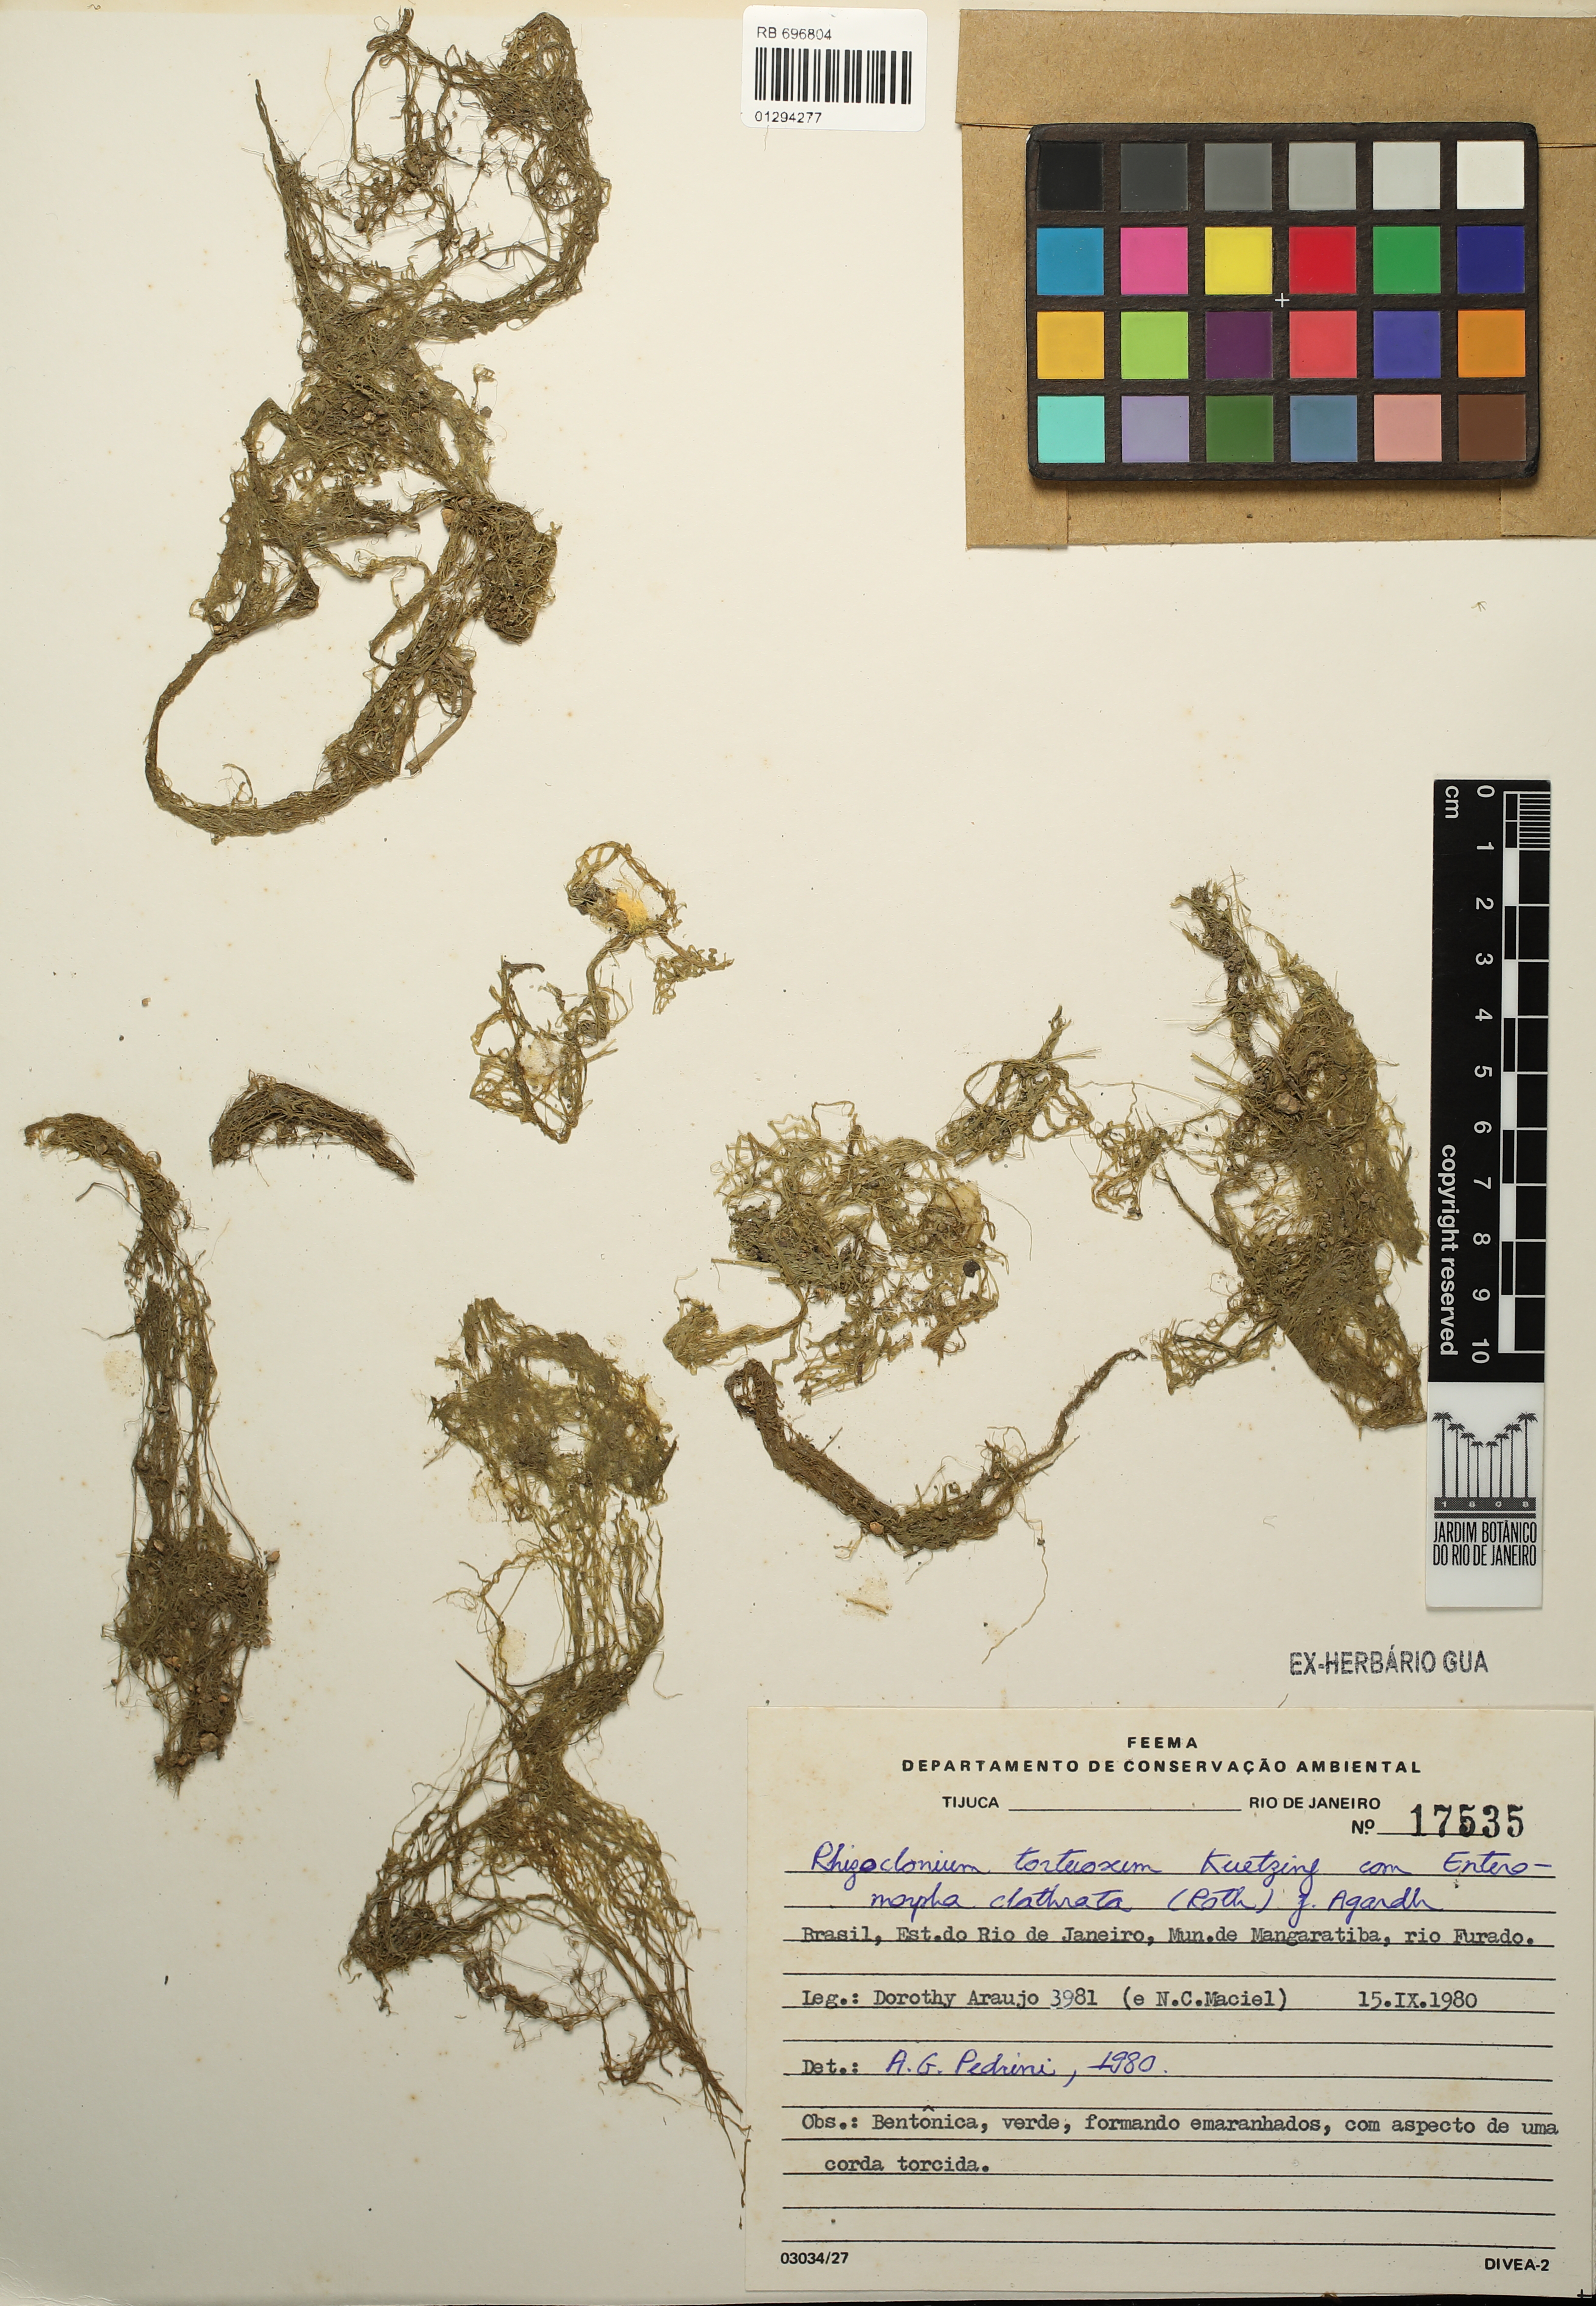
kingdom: Plantae
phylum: Chlorophyta
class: Ulvophyceae
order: Cladophorales
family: Cladophoraceae
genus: Chaetomorpha
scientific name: Chaetomorpha ligustica
